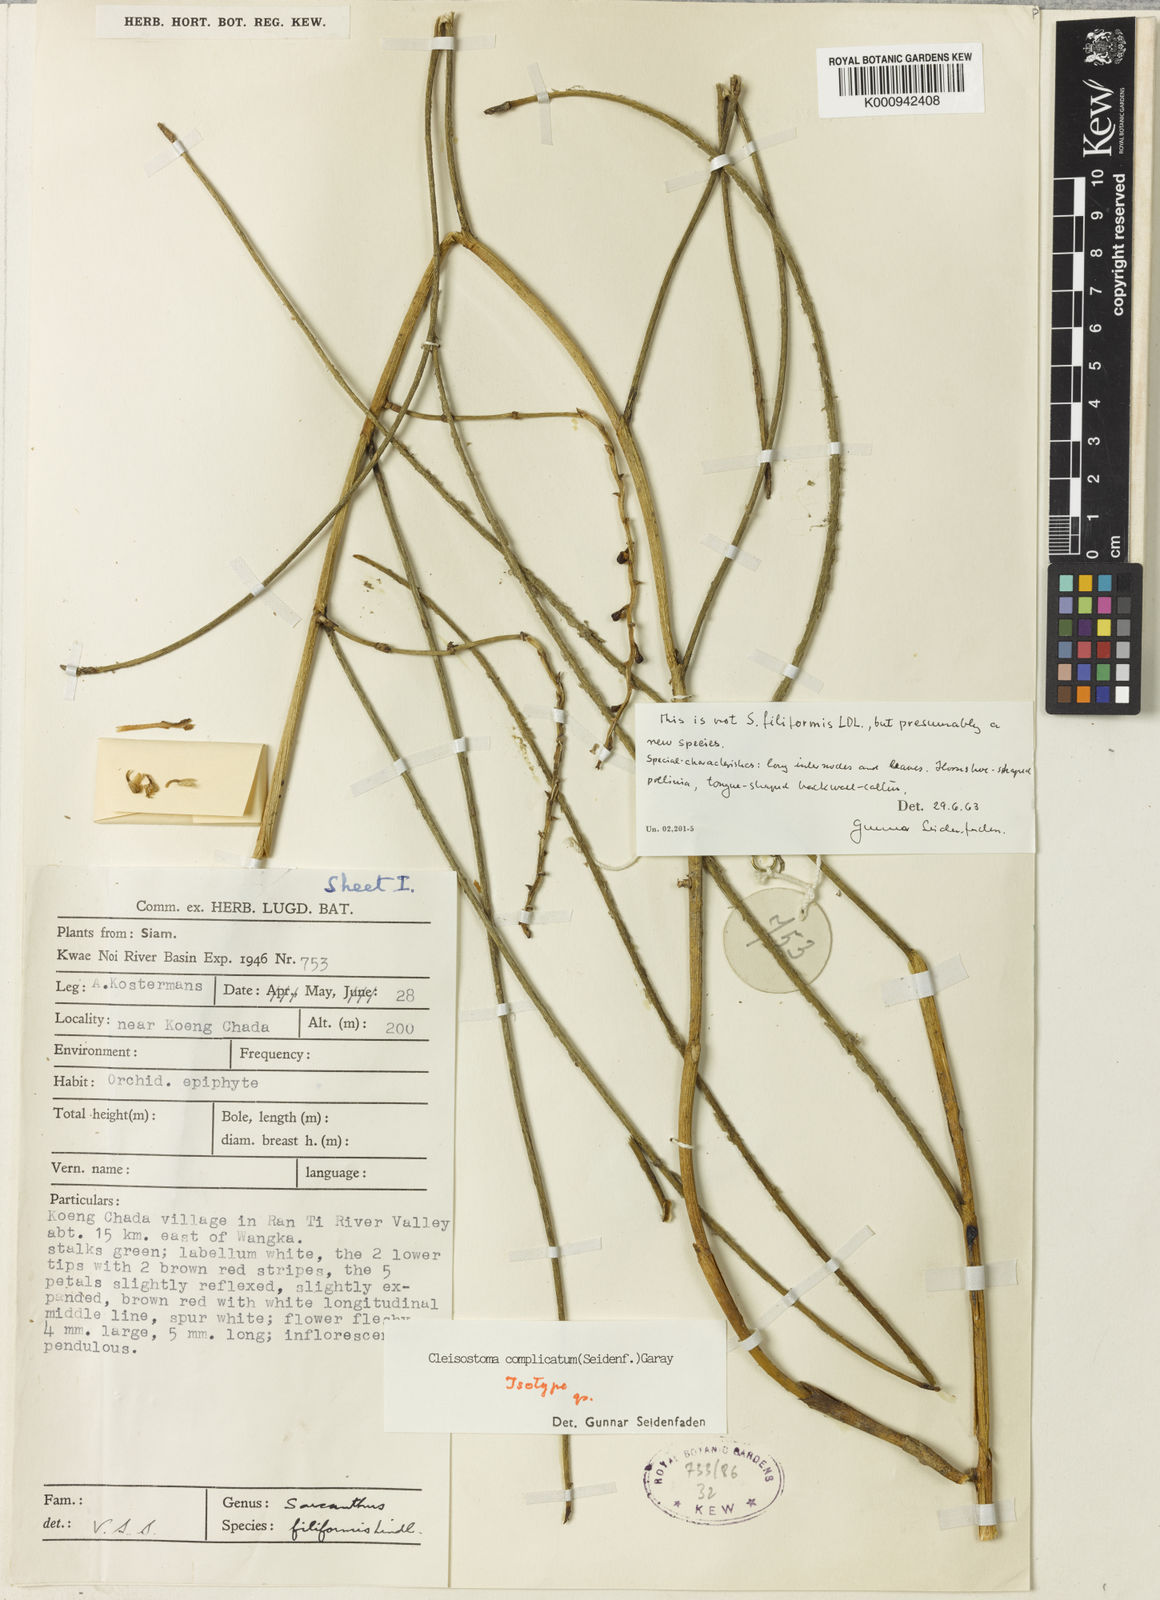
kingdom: Plantae
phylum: Tracheophyta
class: Liliopsida
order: Asparagales
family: Orchidaceae
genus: Cleisostoma
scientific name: Cleisostoma complicatum
